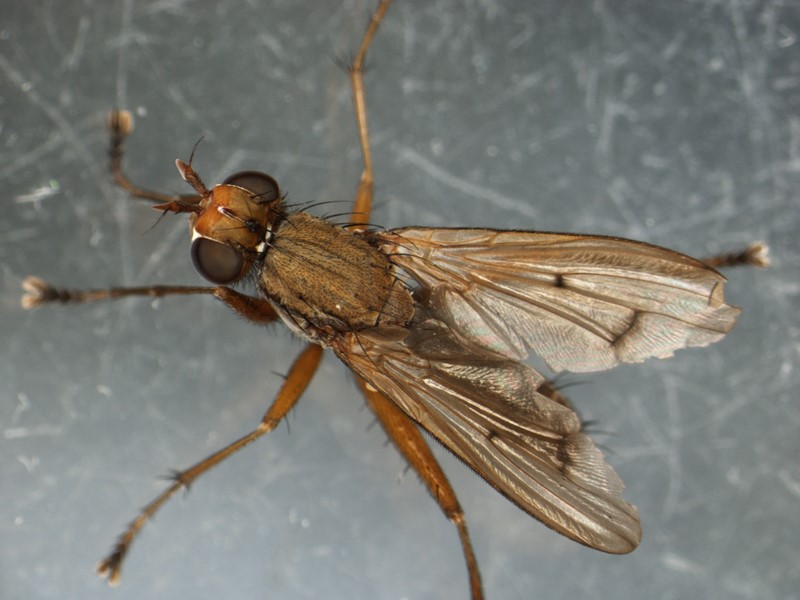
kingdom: Animalia
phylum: Arthropoda
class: Insecta
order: Diptera
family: Sciomyzidae
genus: Tetanocera
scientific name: Tetanocera robusta
